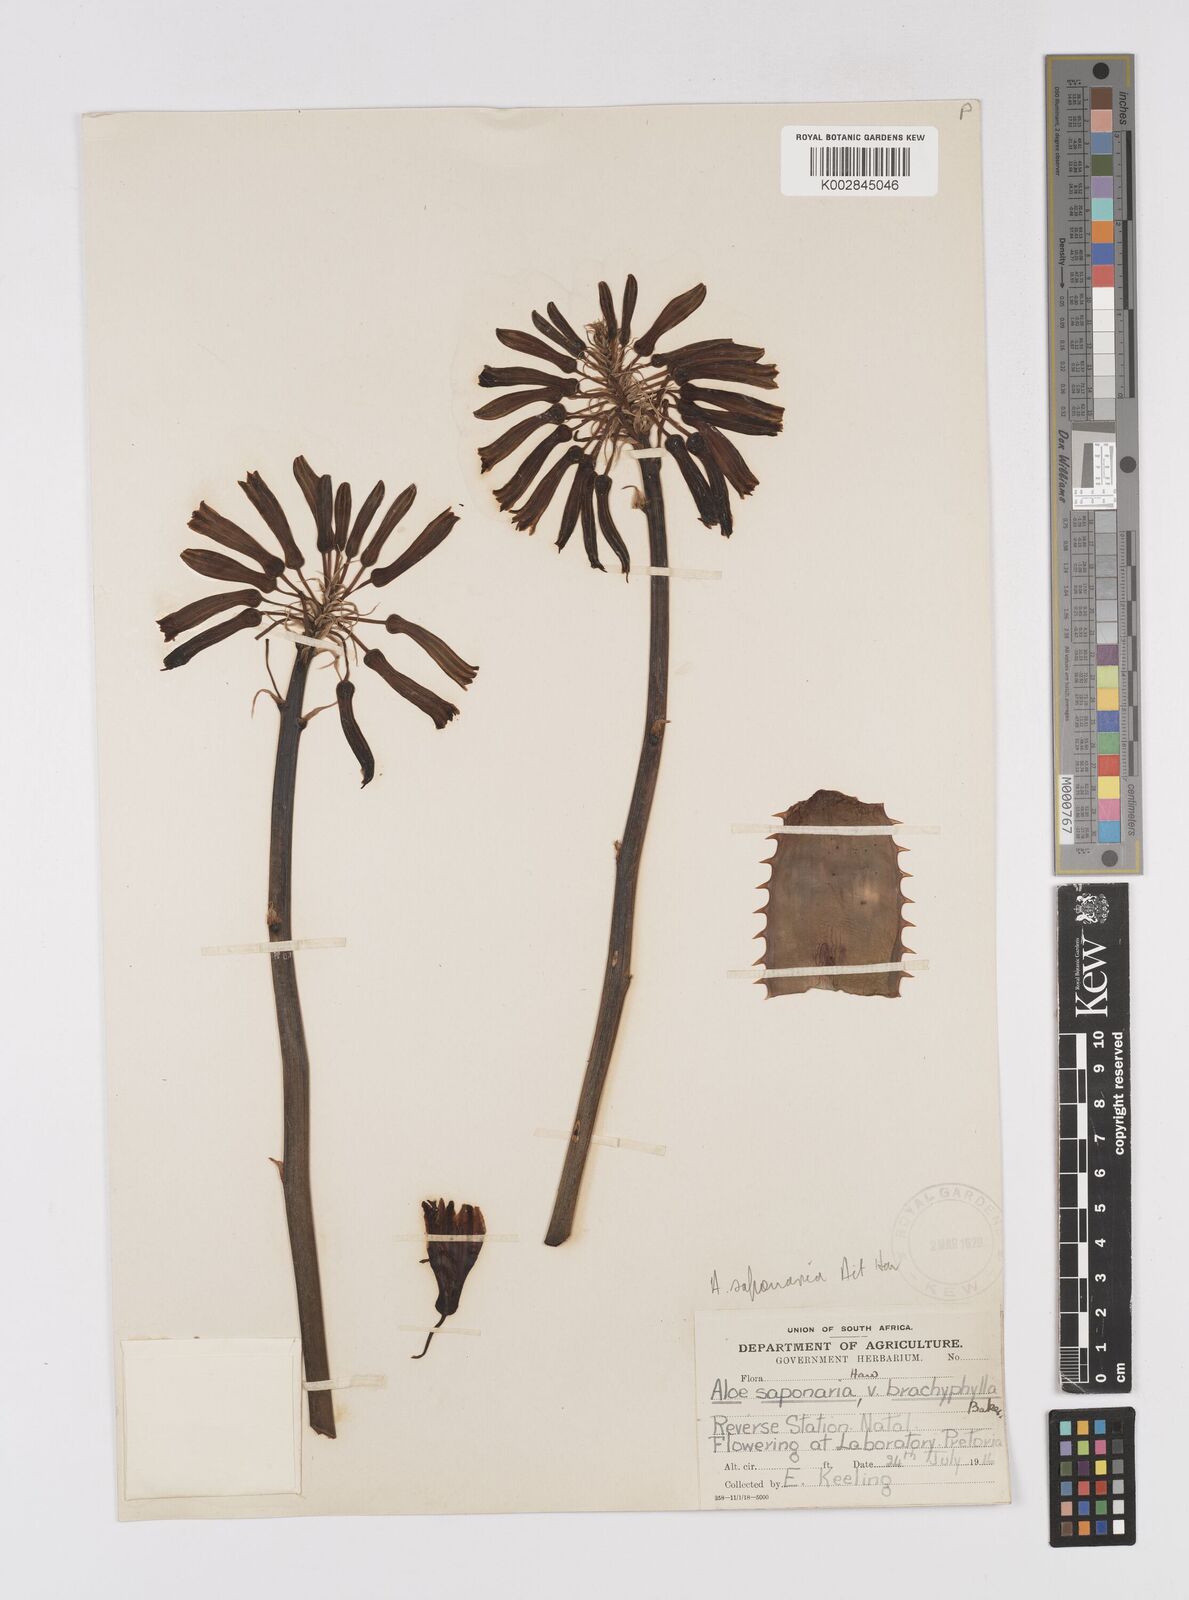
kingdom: Plantae
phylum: Tracheophyta
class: Liliopsida
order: Asparagales
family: Asphodelaceae
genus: Aloe
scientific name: Aloe
